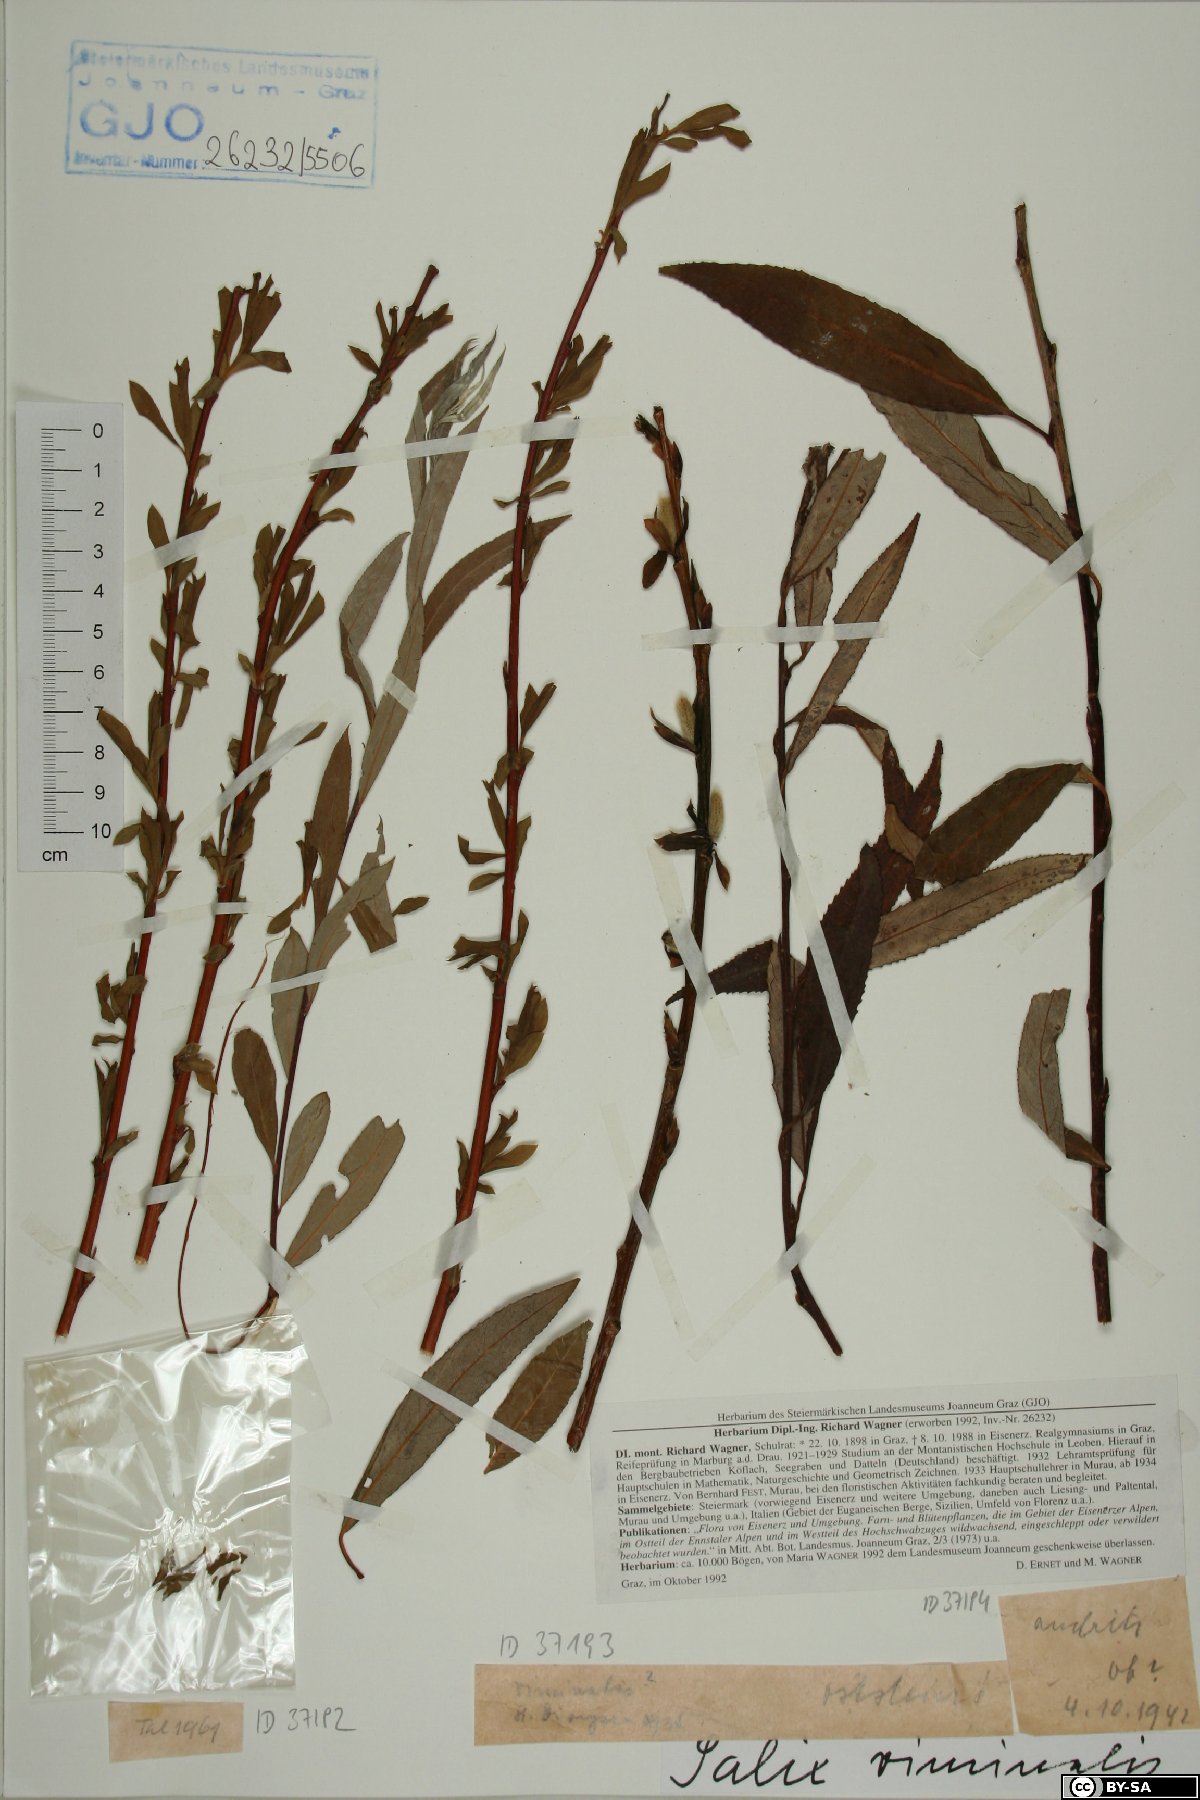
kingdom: Plantae
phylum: Tracheophyta
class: Magnoliopsida
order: Malpighiales
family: Salicaceae
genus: Salix
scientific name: Salix viminalis
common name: Osier
